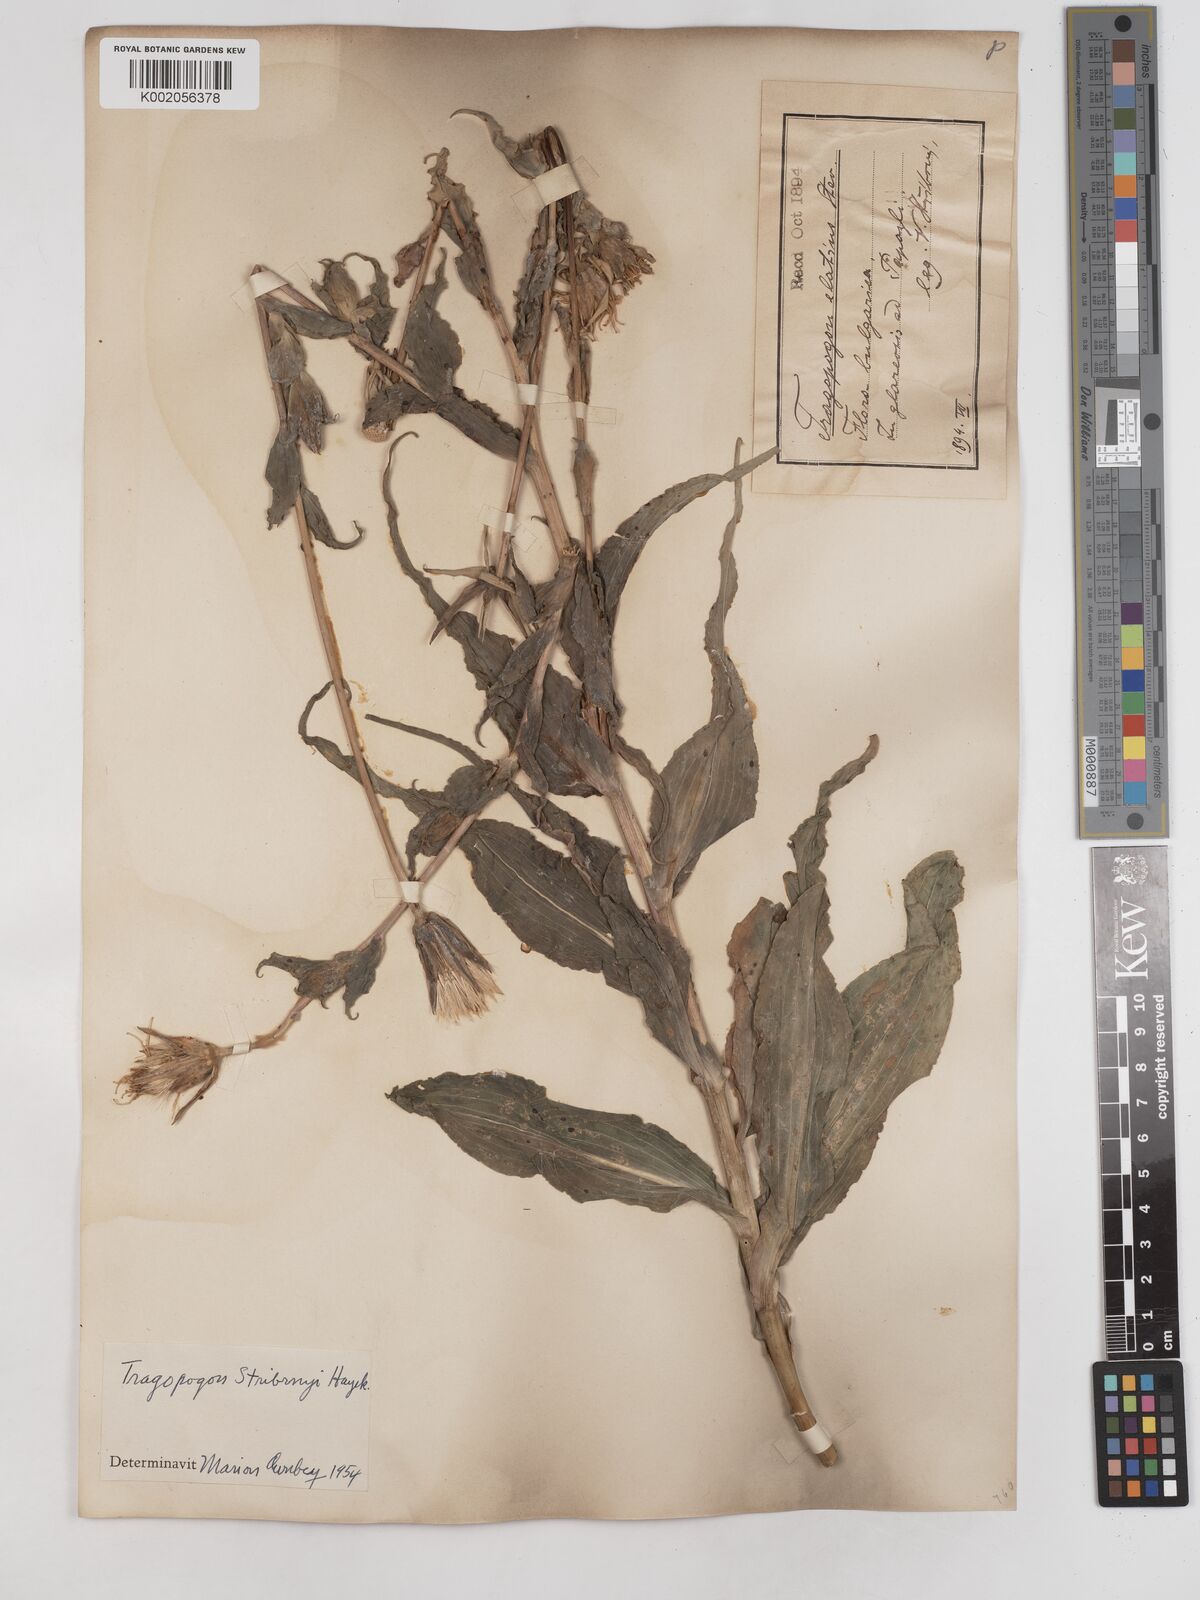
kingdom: Plantae
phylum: Tracheophyta
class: Magnoliopsida
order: Asterales
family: Asteraceae
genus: Tragopogon
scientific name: Tragopogon dubius
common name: Yellow salsify
